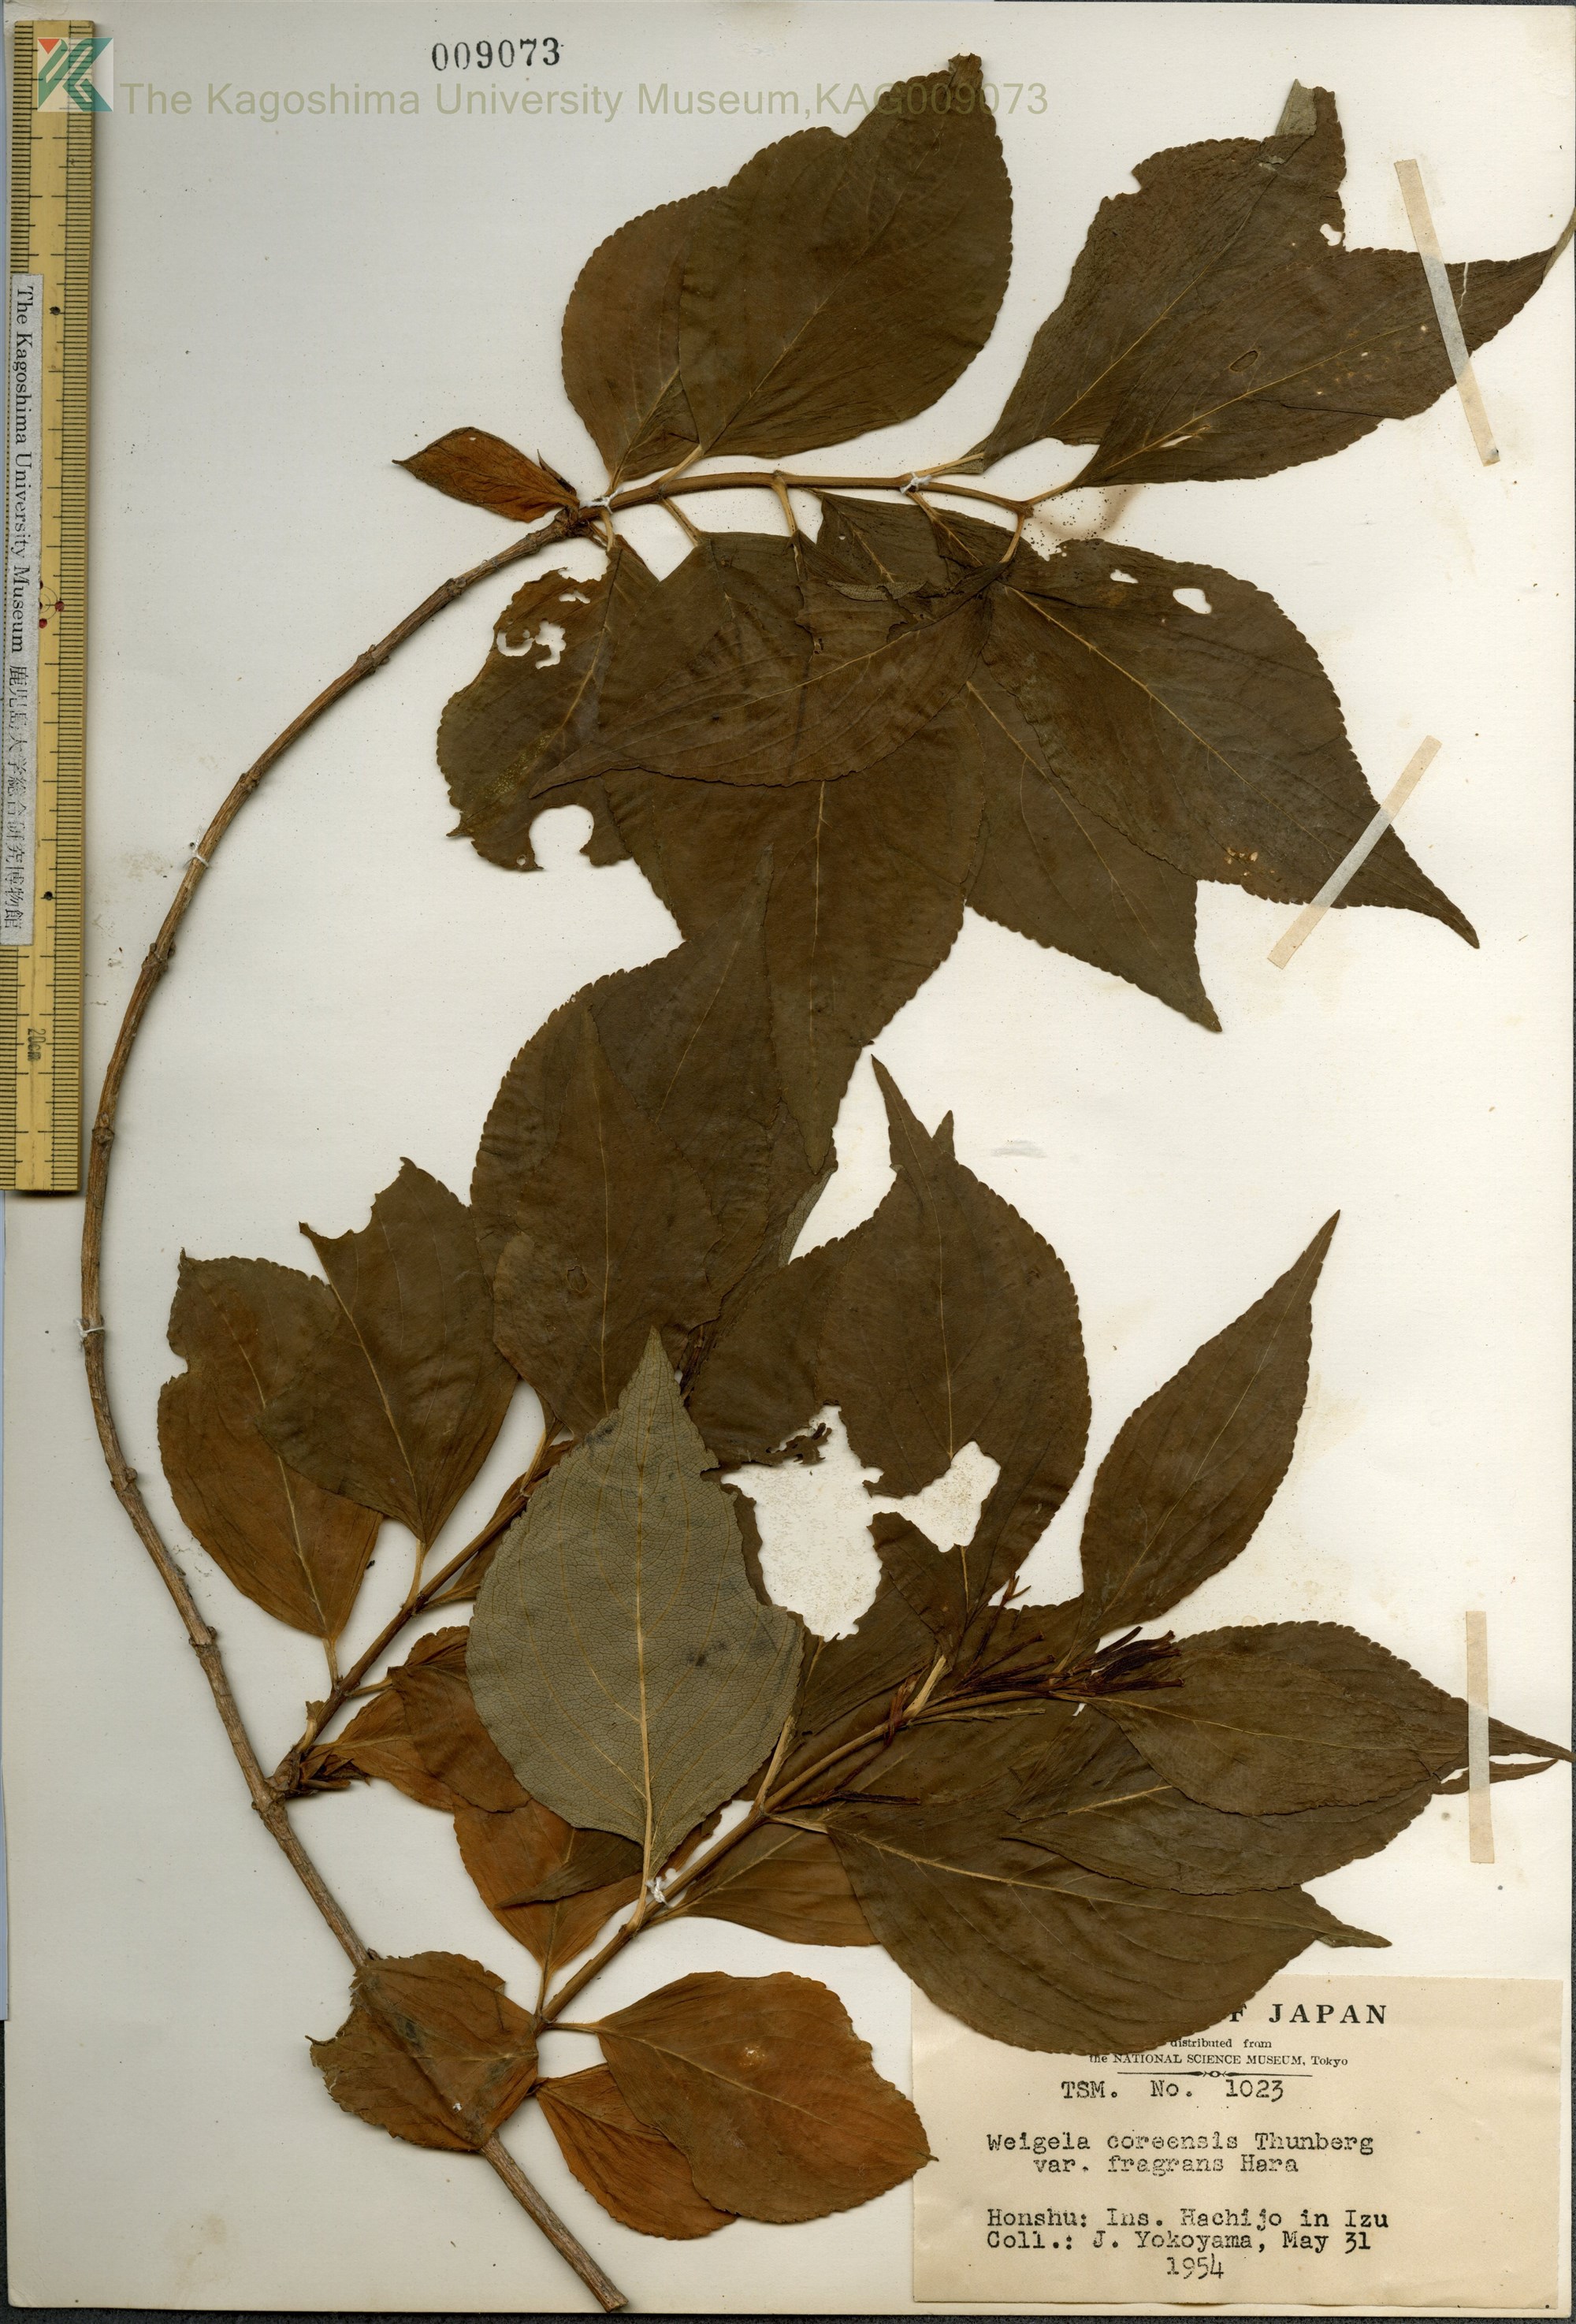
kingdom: Plantae
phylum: Tracheophyta
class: Magnoliopsida
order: Dipsacales
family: Caprifoliaceae
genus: Weigela
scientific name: Weigela
